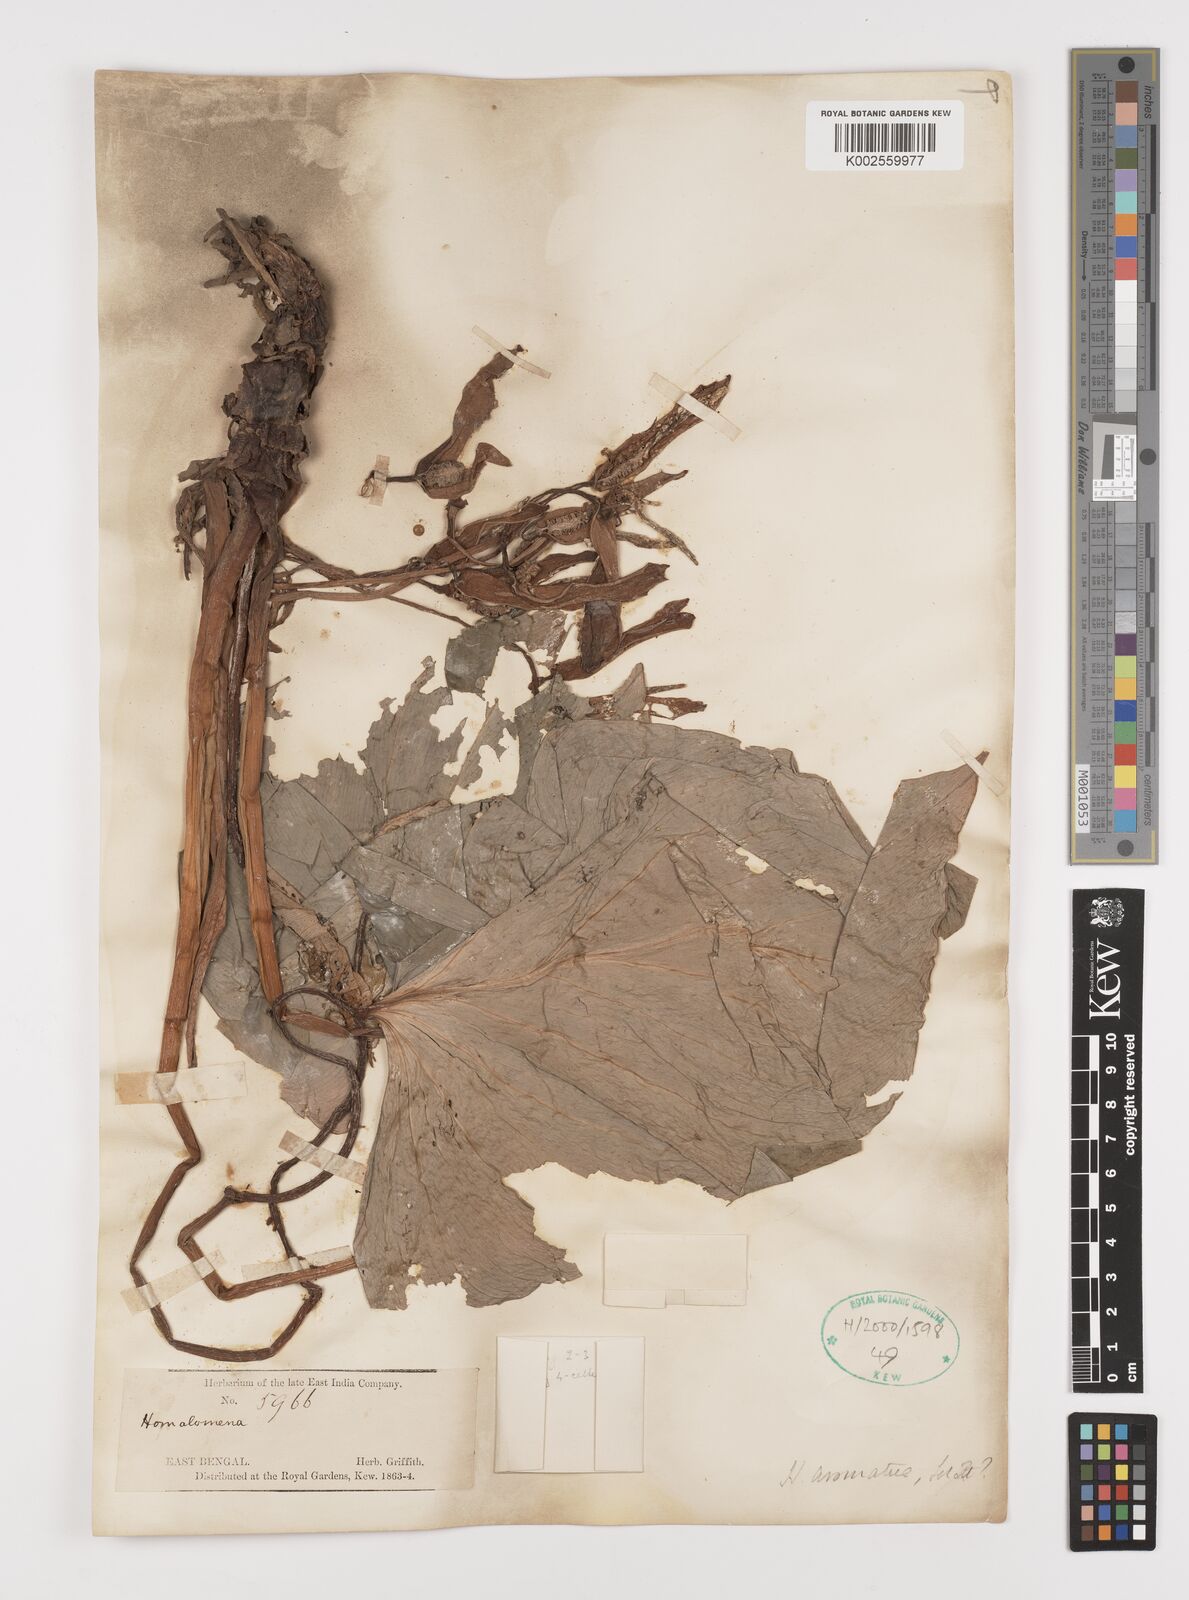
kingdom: Plantae
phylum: Tracheophyta
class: Liliopsida
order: Alismatales
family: Araceae
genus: Homalomena
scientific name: Homalomena aromatica
